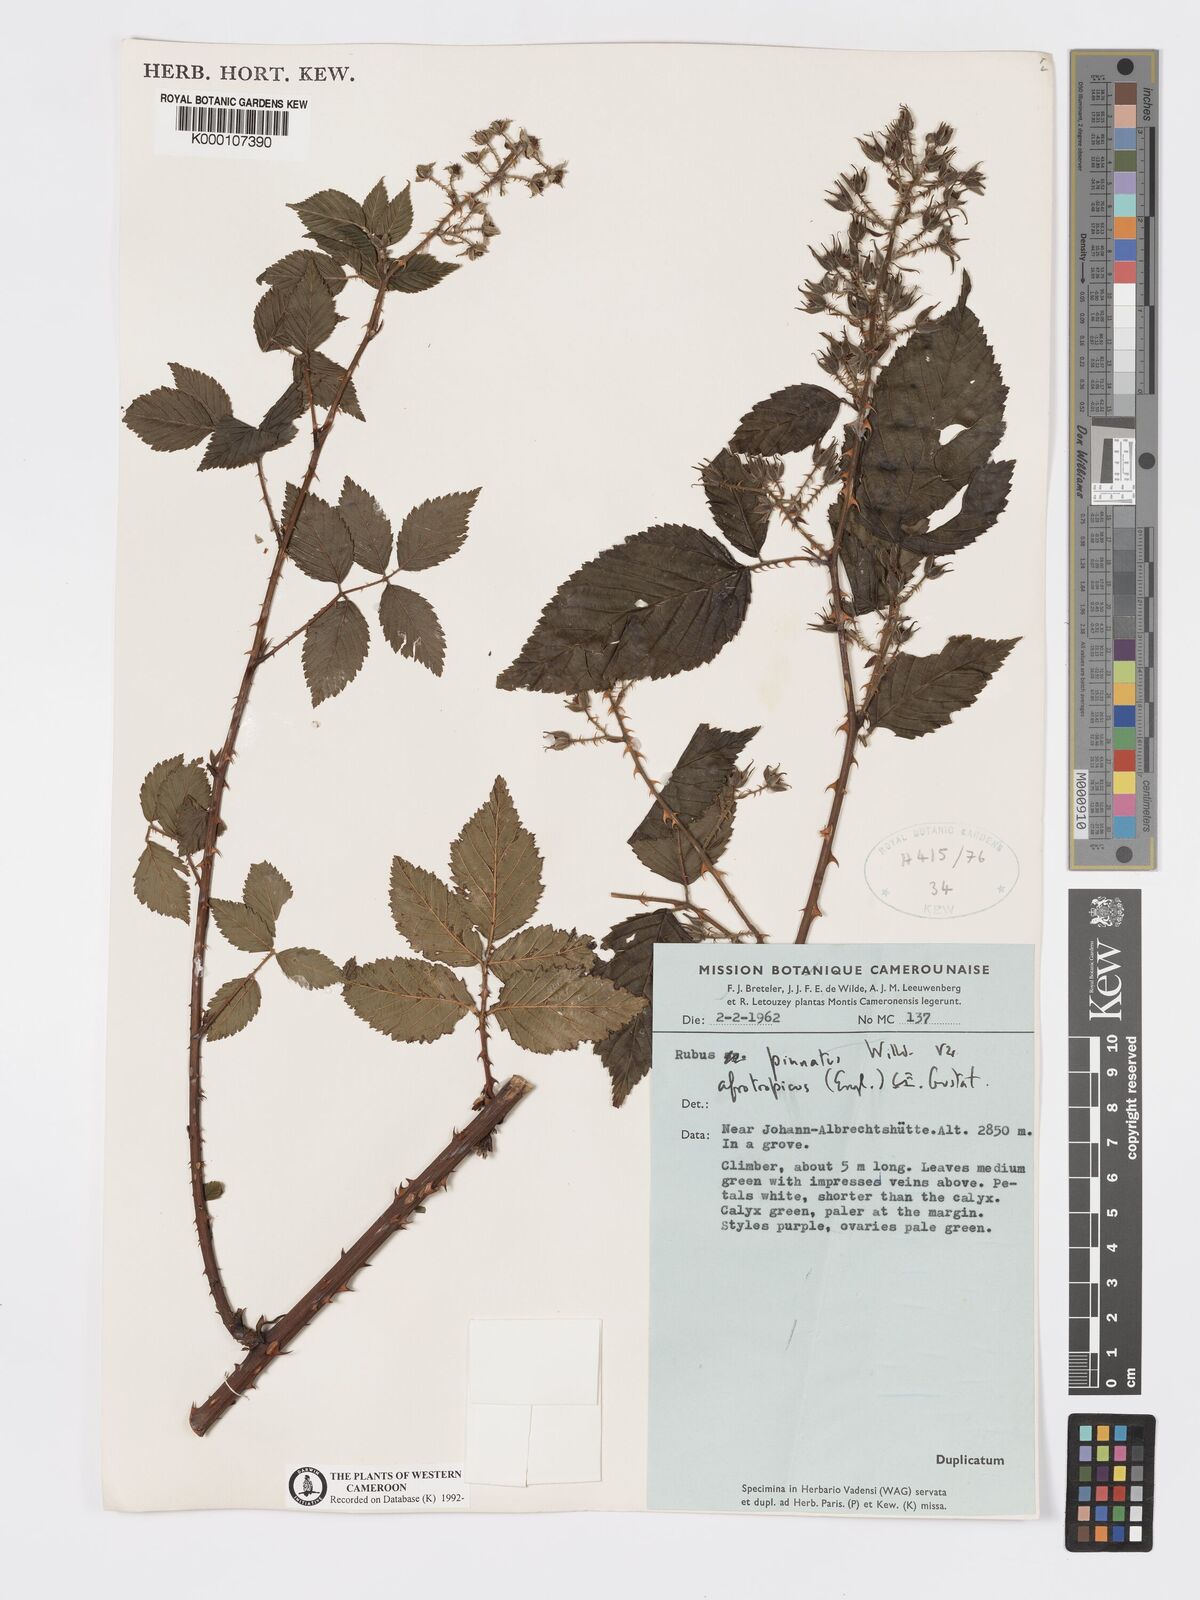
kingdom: Plantae
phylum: Tracheophyta
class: Magnoliopsida
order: Rosales
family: Rosaceae
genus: Rubus
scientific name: Rubus pinnatus
